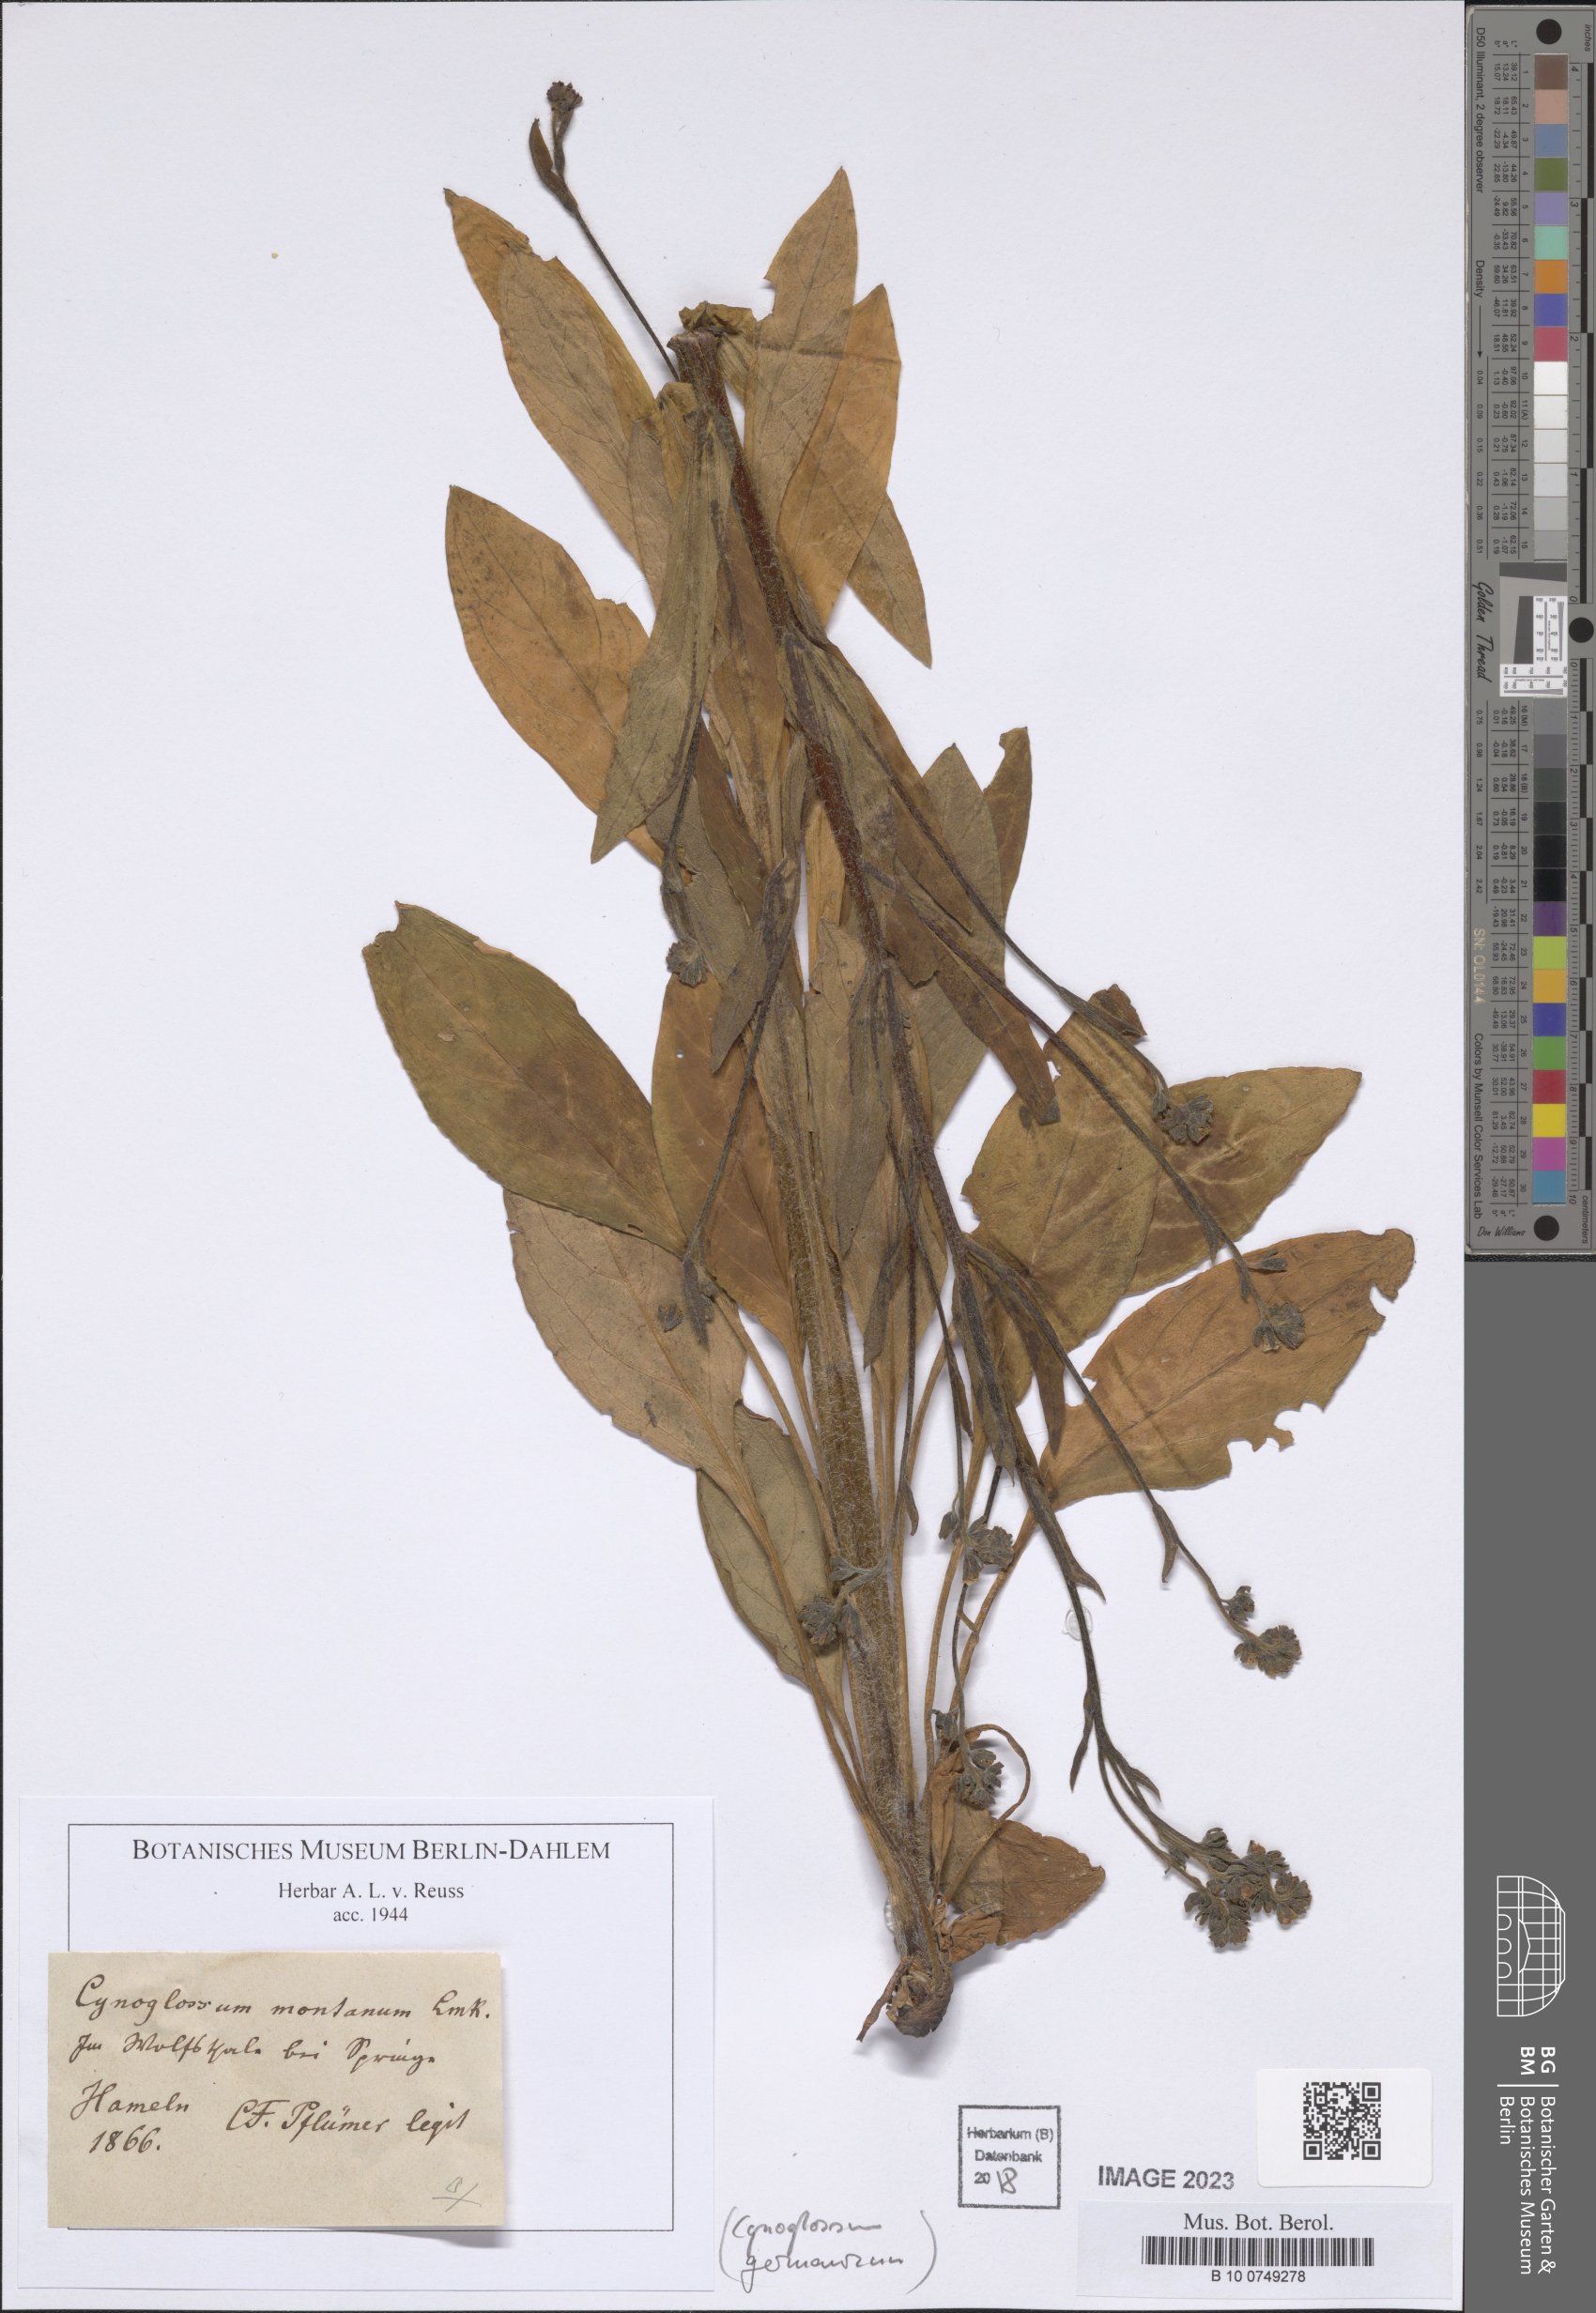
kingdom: Plantae
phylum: Tracheophyta
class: Magnoliopsida
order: Boraginales
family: Boraginaceae
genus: Cynoglossum
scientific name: Cynoglossum germanicum
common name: Green hound's-tongue
